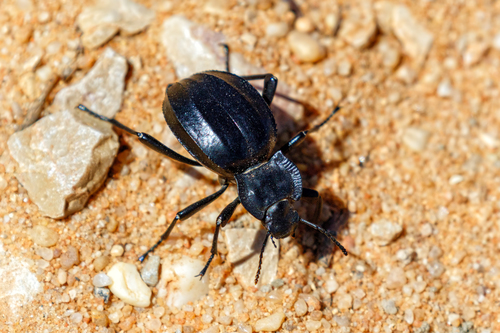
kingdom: Animalia
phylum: Arthropoda
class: Insecta
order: Coleoptera
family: Tenebrionidae
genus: Akis
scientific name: Akis granulifera
